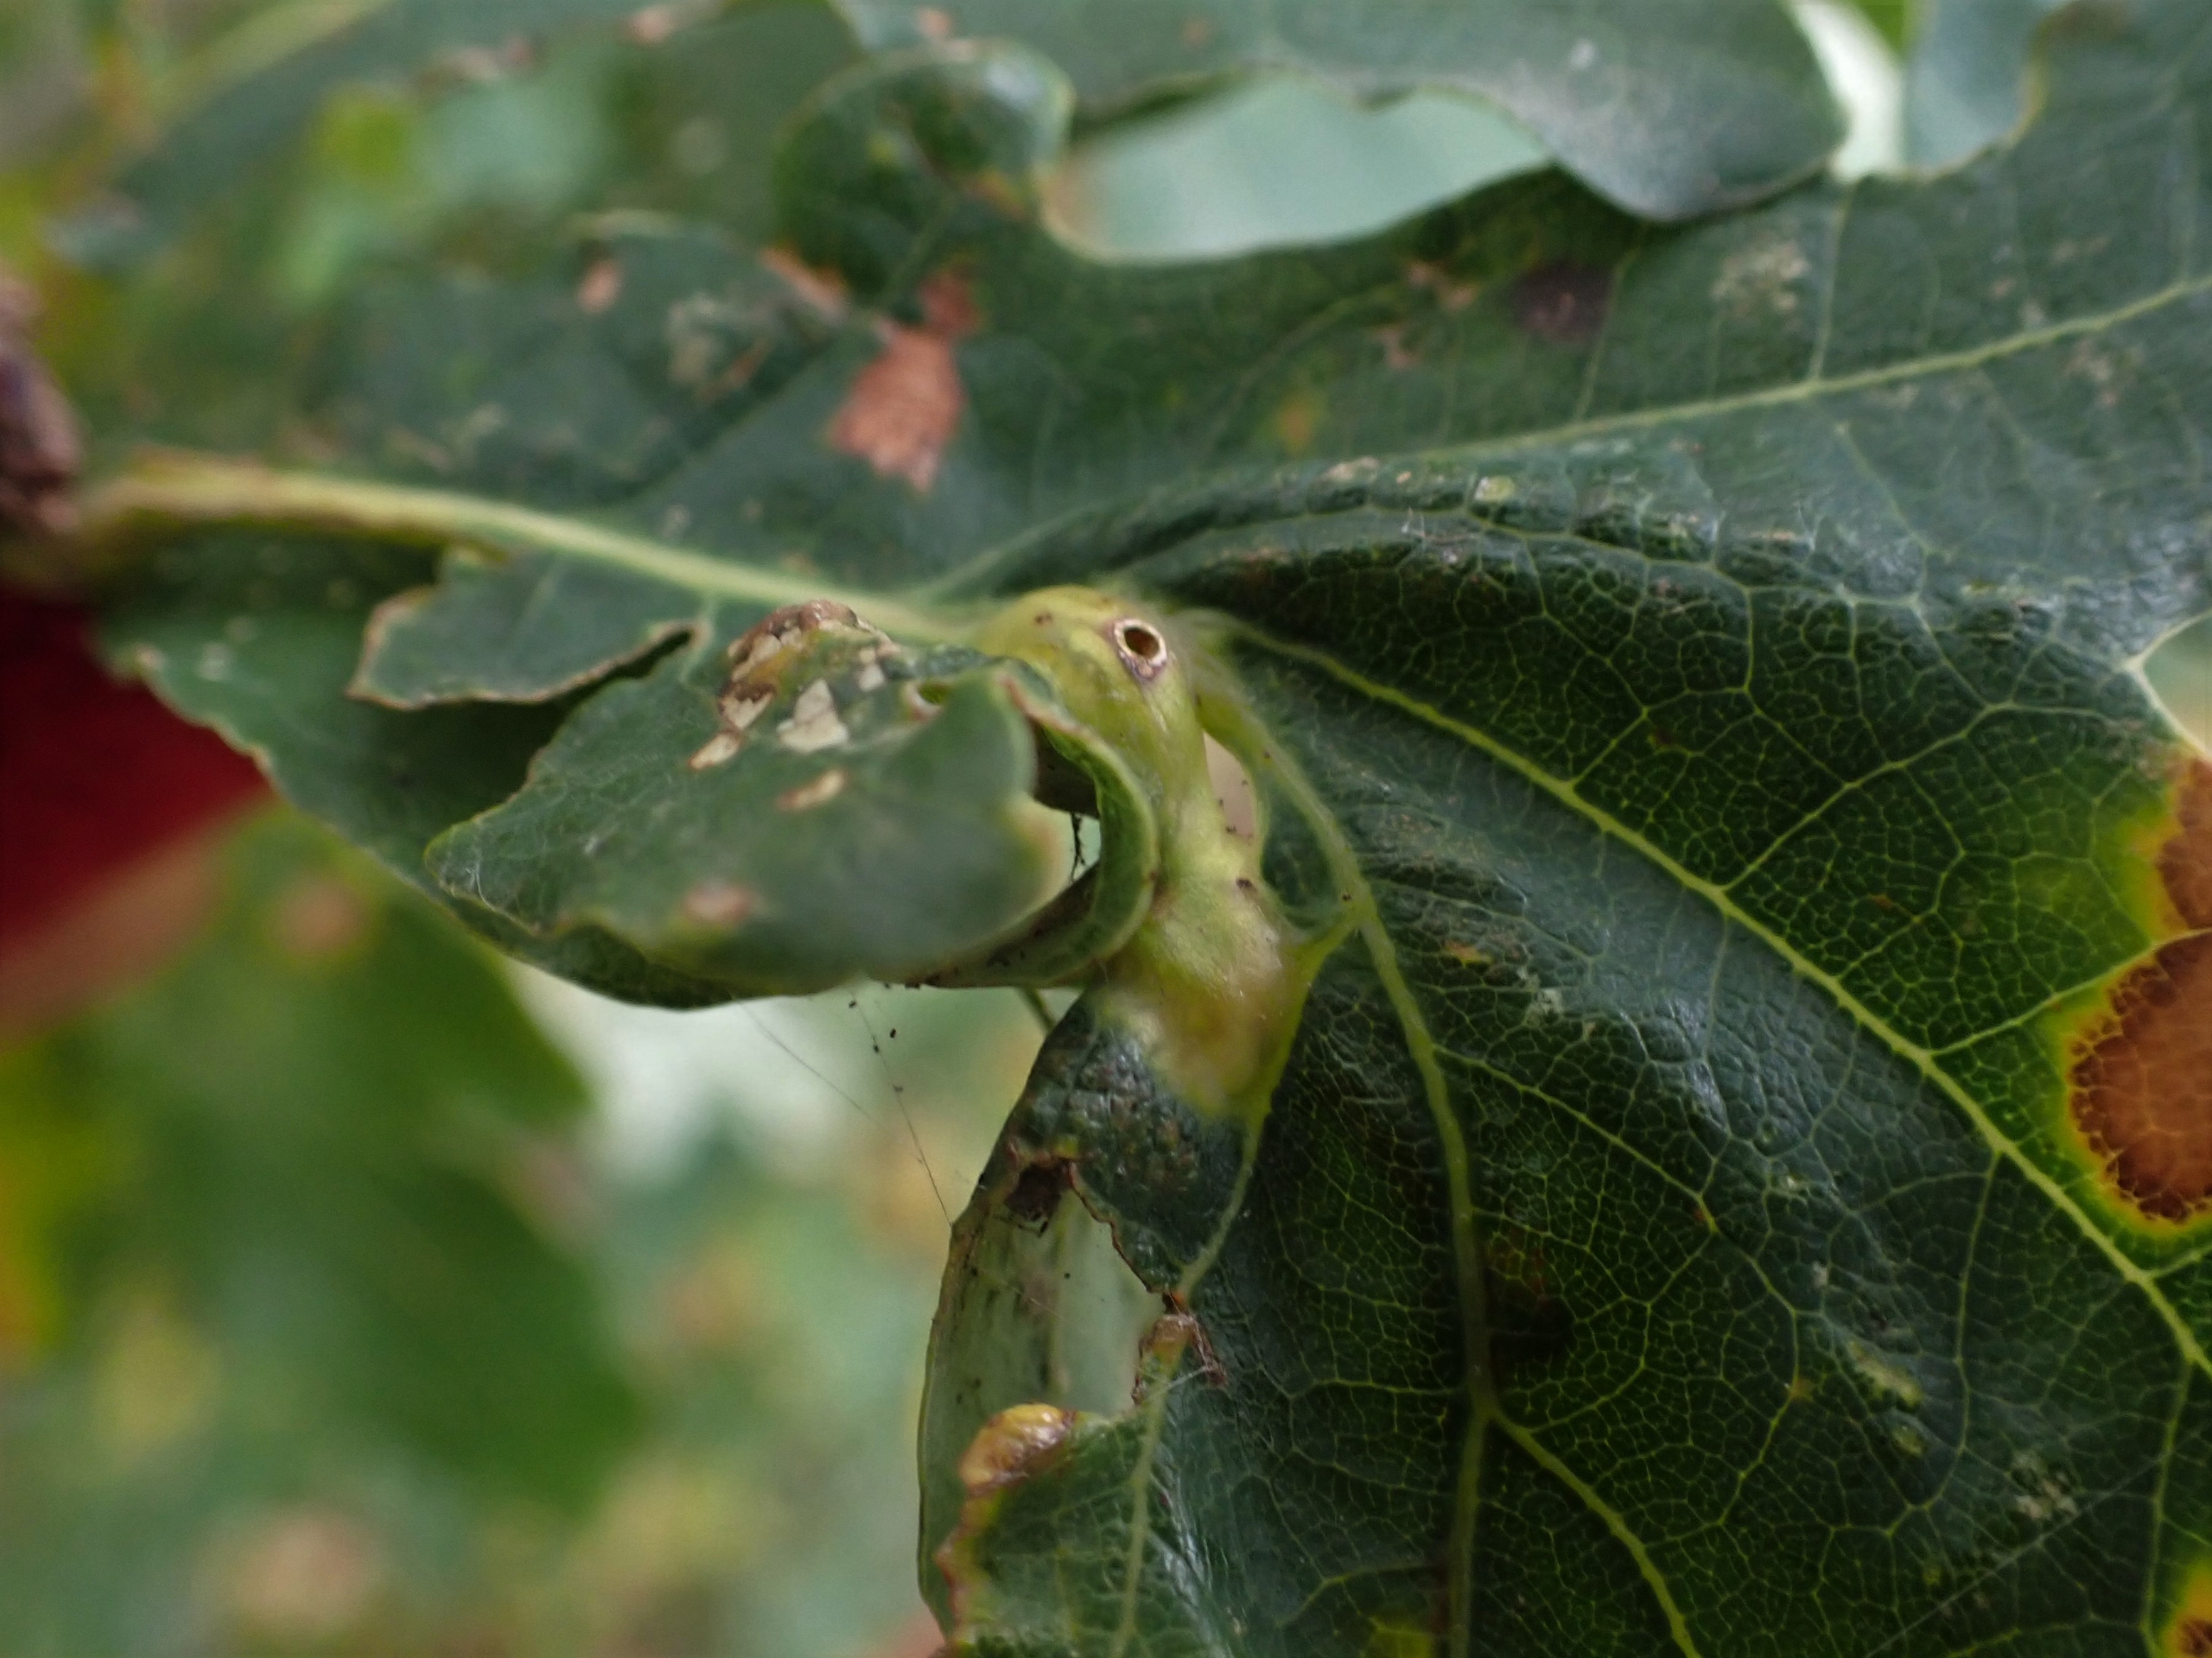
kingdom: Animalia
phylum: Arthropoda
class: Insecta
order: Hymenoptera
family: Cynipidae
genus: Andricus
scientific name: Andricus curvator
